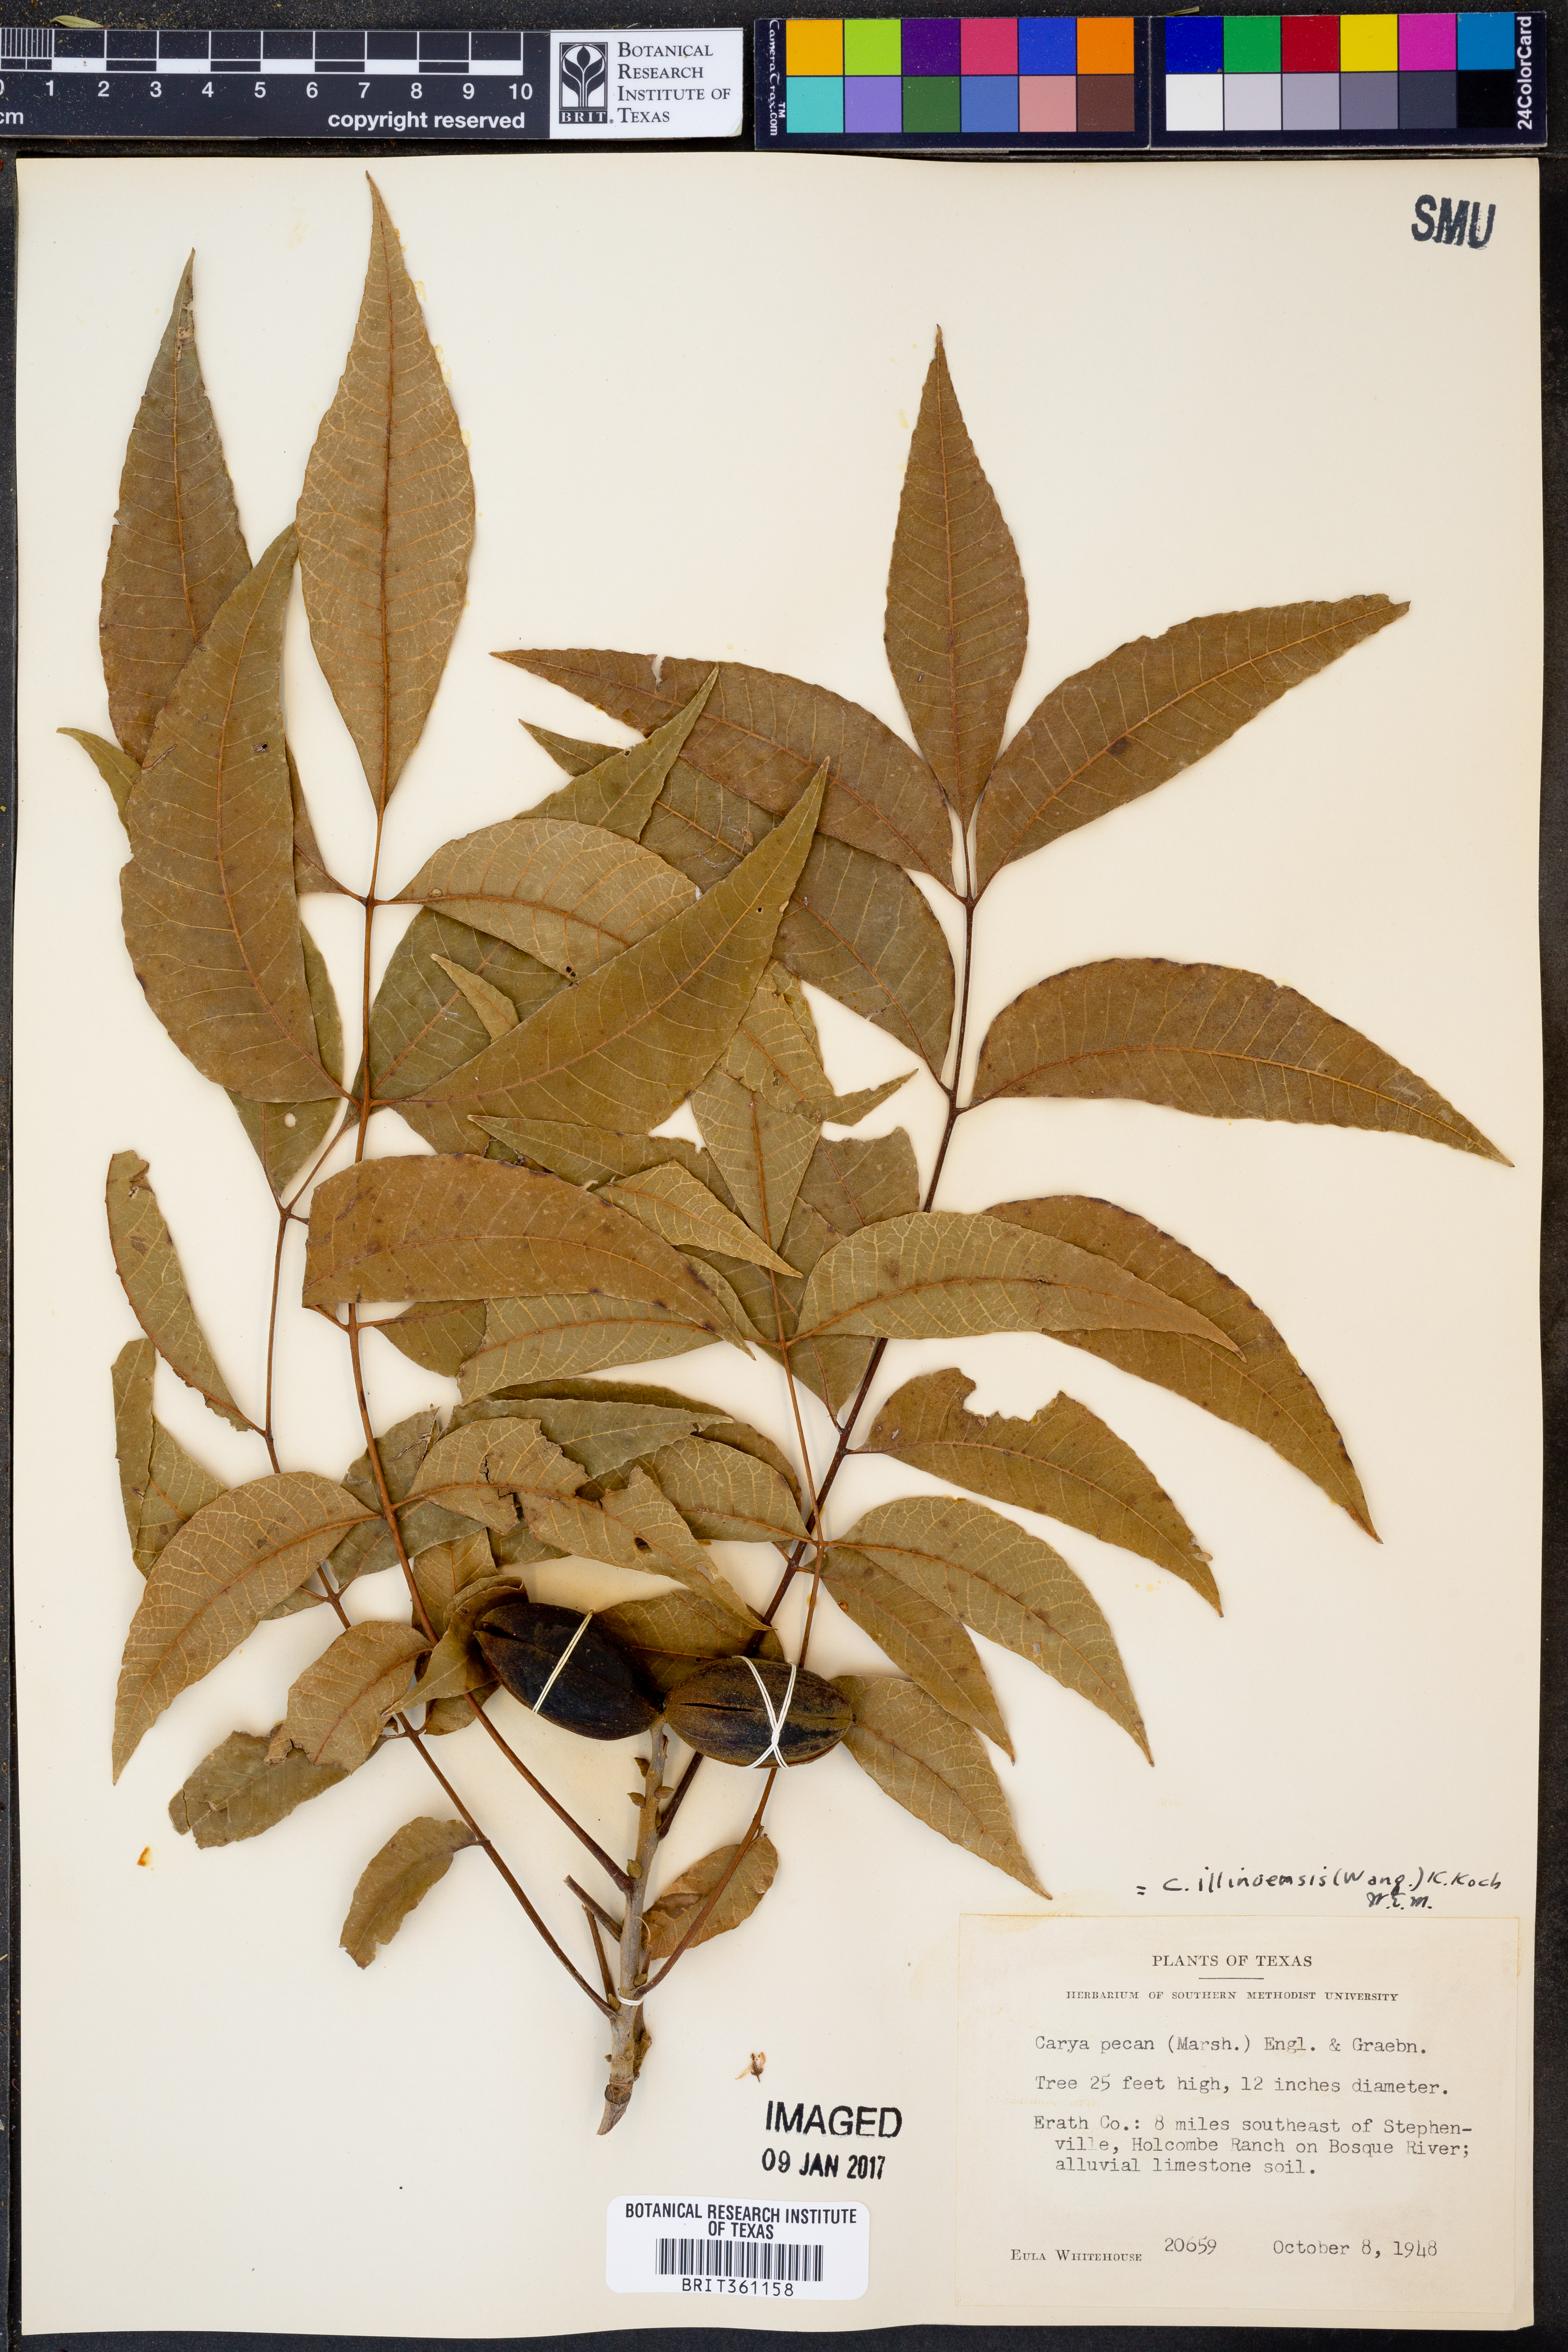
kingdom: Plantae
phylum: Tracheophyta
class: Magnoliopsida
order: Fagales
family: Juglandaceae
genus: Carya
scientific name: Carya illinoinensis
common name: Pecan
